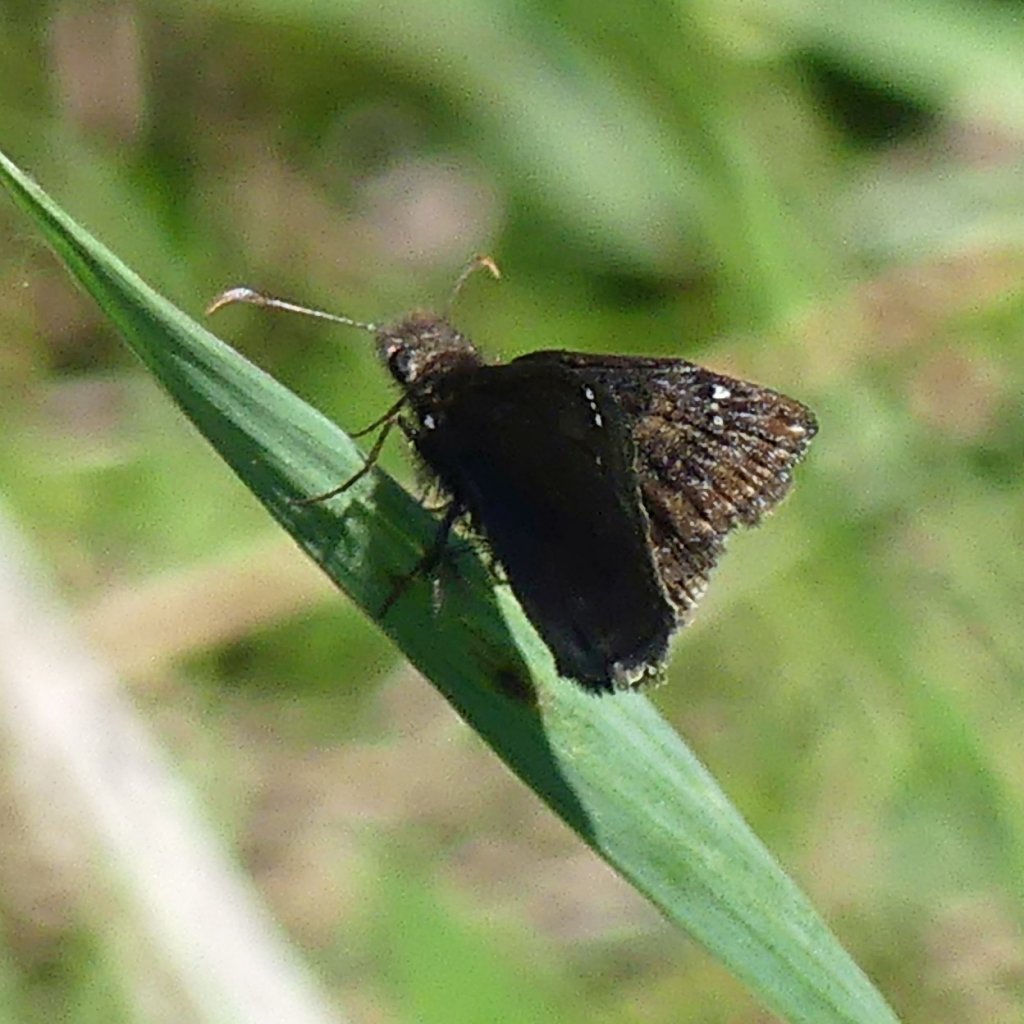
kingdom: Animalia
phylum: Arthropoda
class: Insecta
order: Lepidoptera
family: Hesperiidae
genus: Erynnis
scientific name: Erynnis
